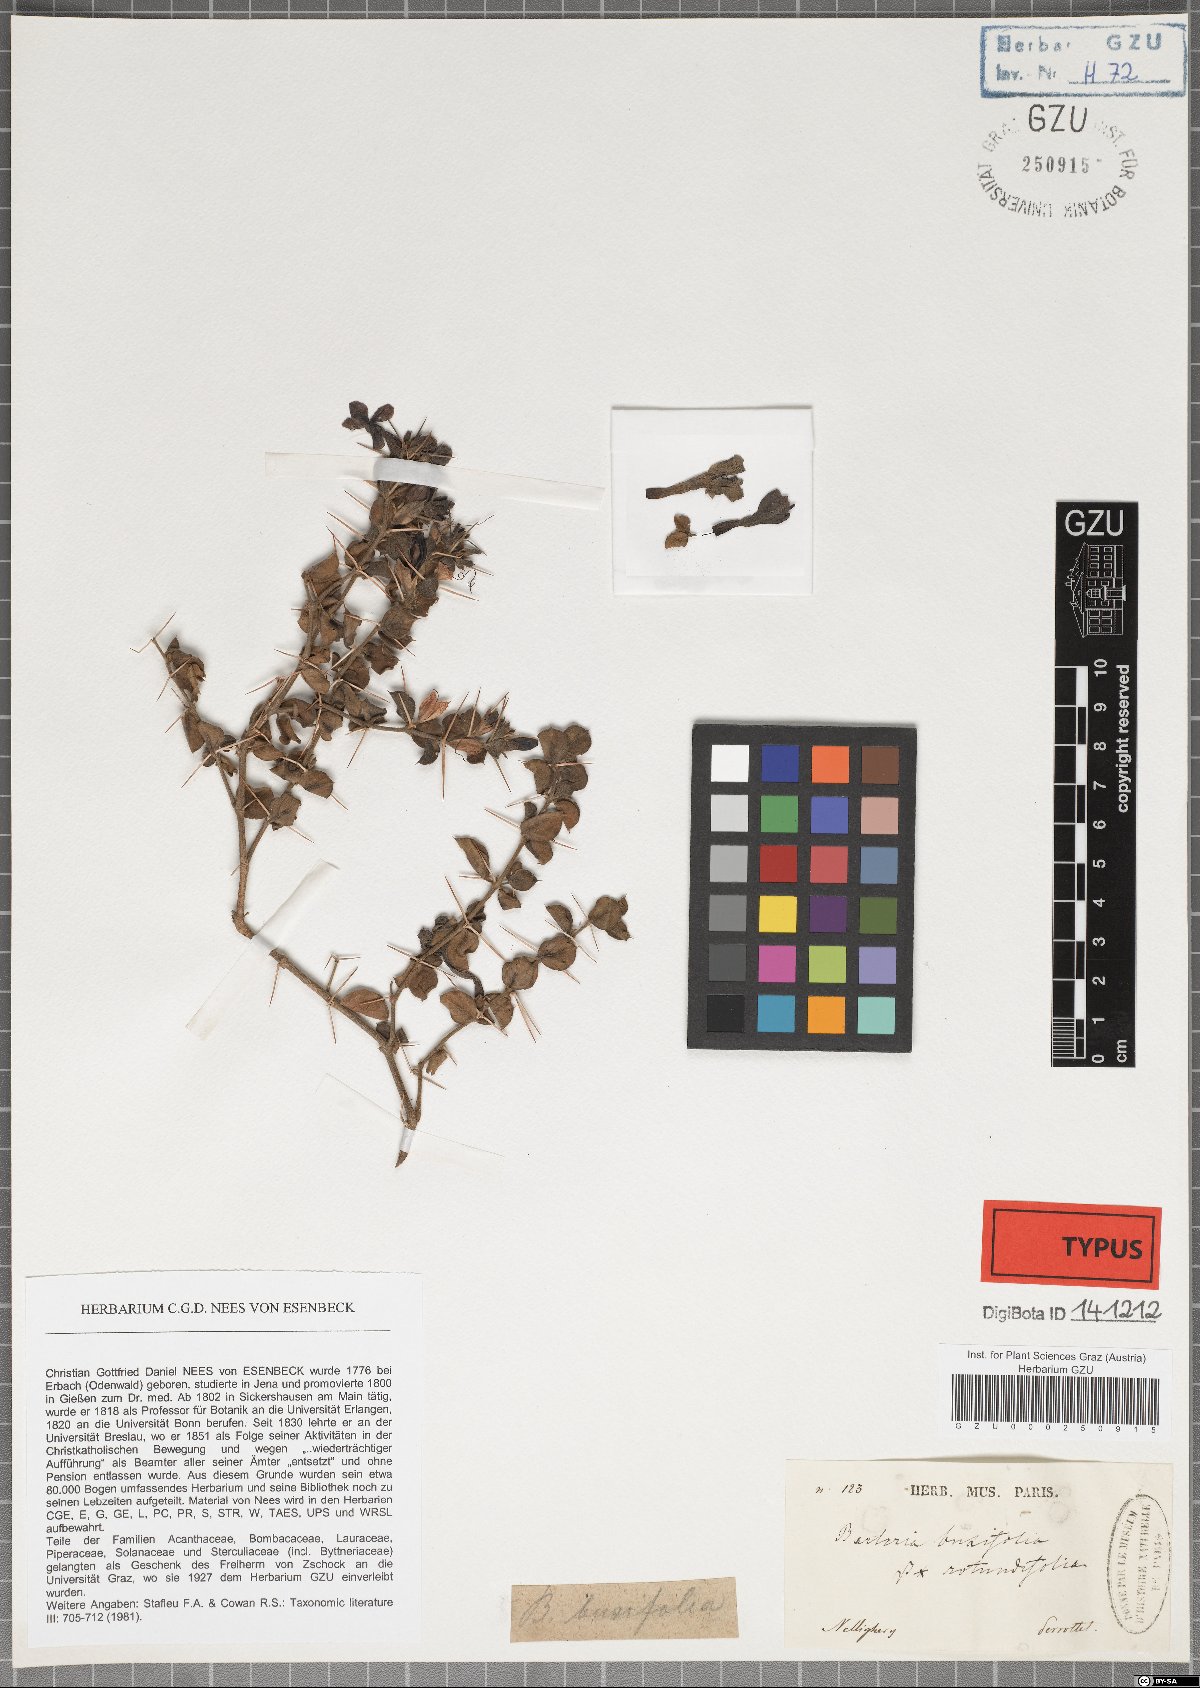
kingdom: Plantae
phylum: Tracheophyta
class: Magnoliopsida
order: Lamiales
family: Acanthaceae
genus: Barleria
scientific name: Barleria buxifolia
